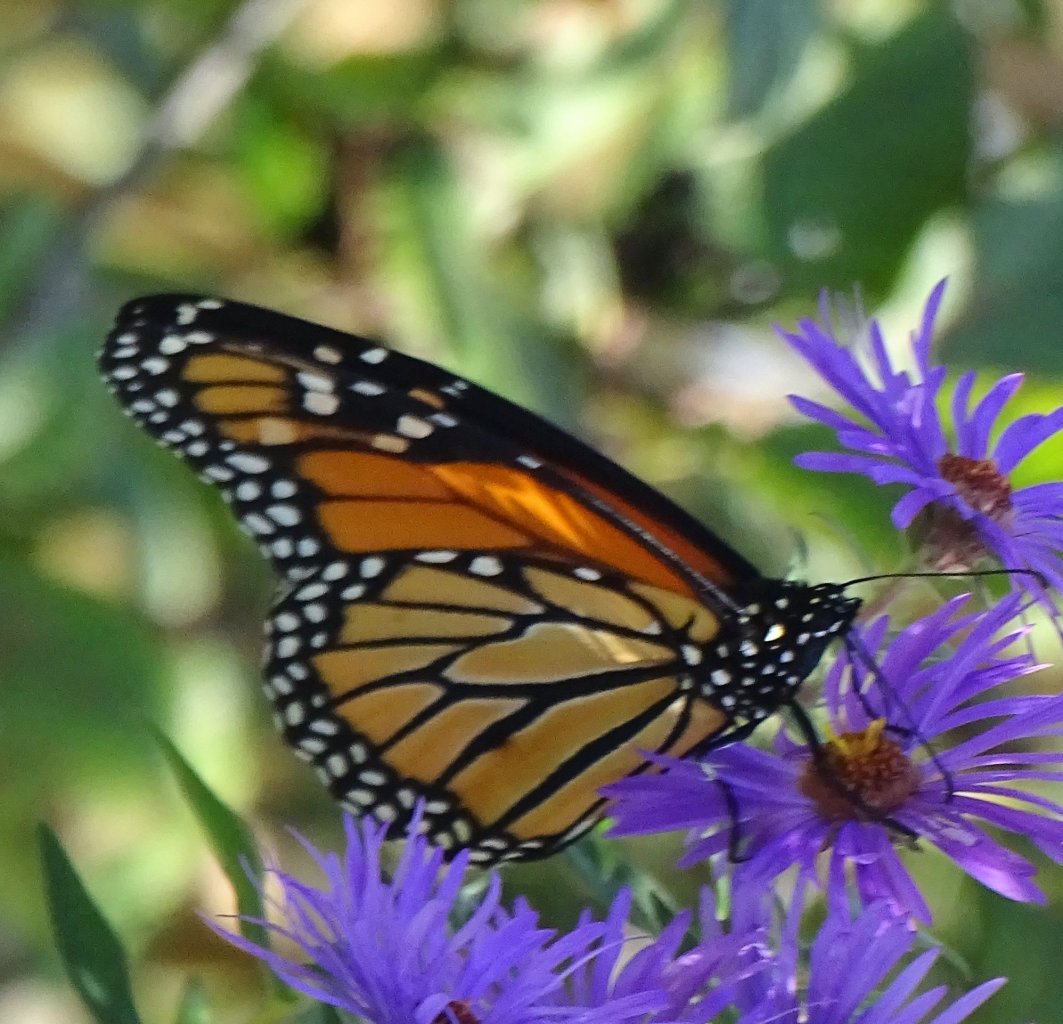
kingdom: Animalia
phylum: Arthropoda
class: Insecta
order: Lepidoptera
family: Nymphalidae
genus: Danaus
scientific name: Danaus plexippus
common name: Monarch
